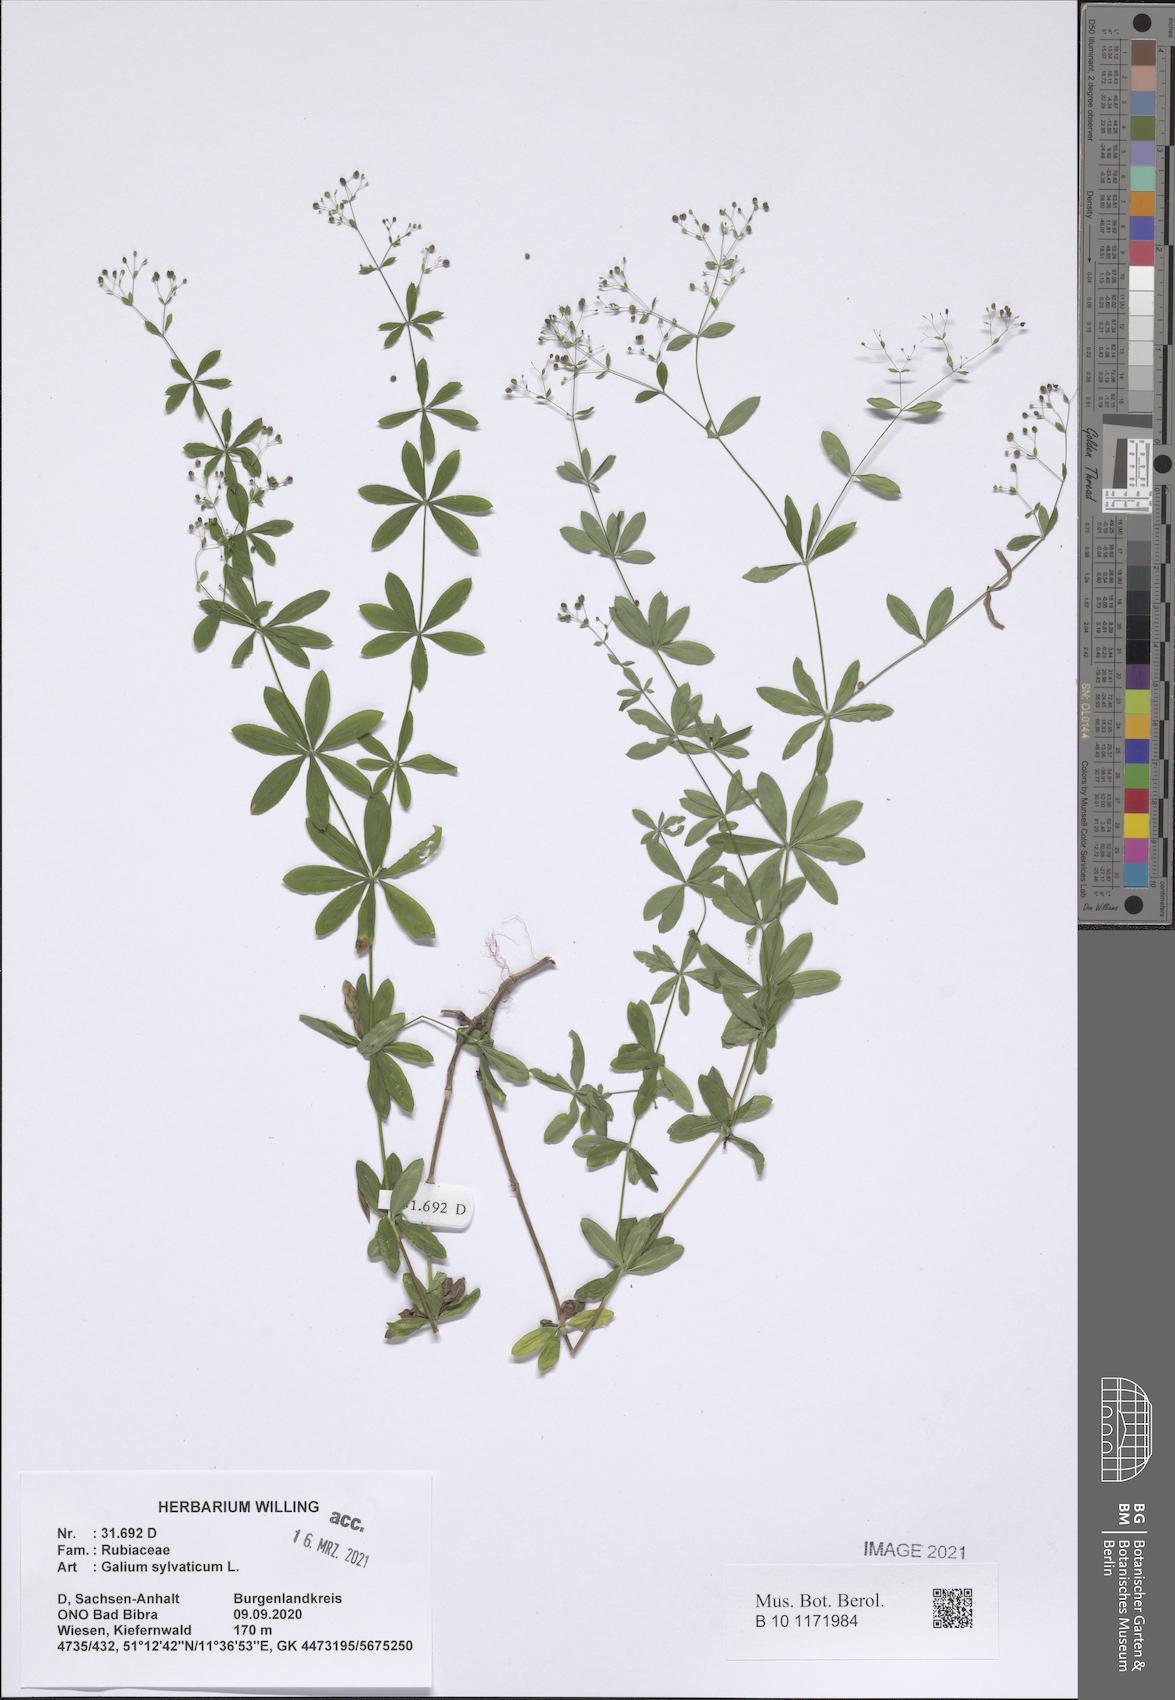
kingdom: Plantae
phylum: Tracheophyta
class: Magnoliopsida
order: Gentianales
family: Rubiaceae
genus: Galium
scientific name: Galium sylvaticum
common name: Wood bedstraw
